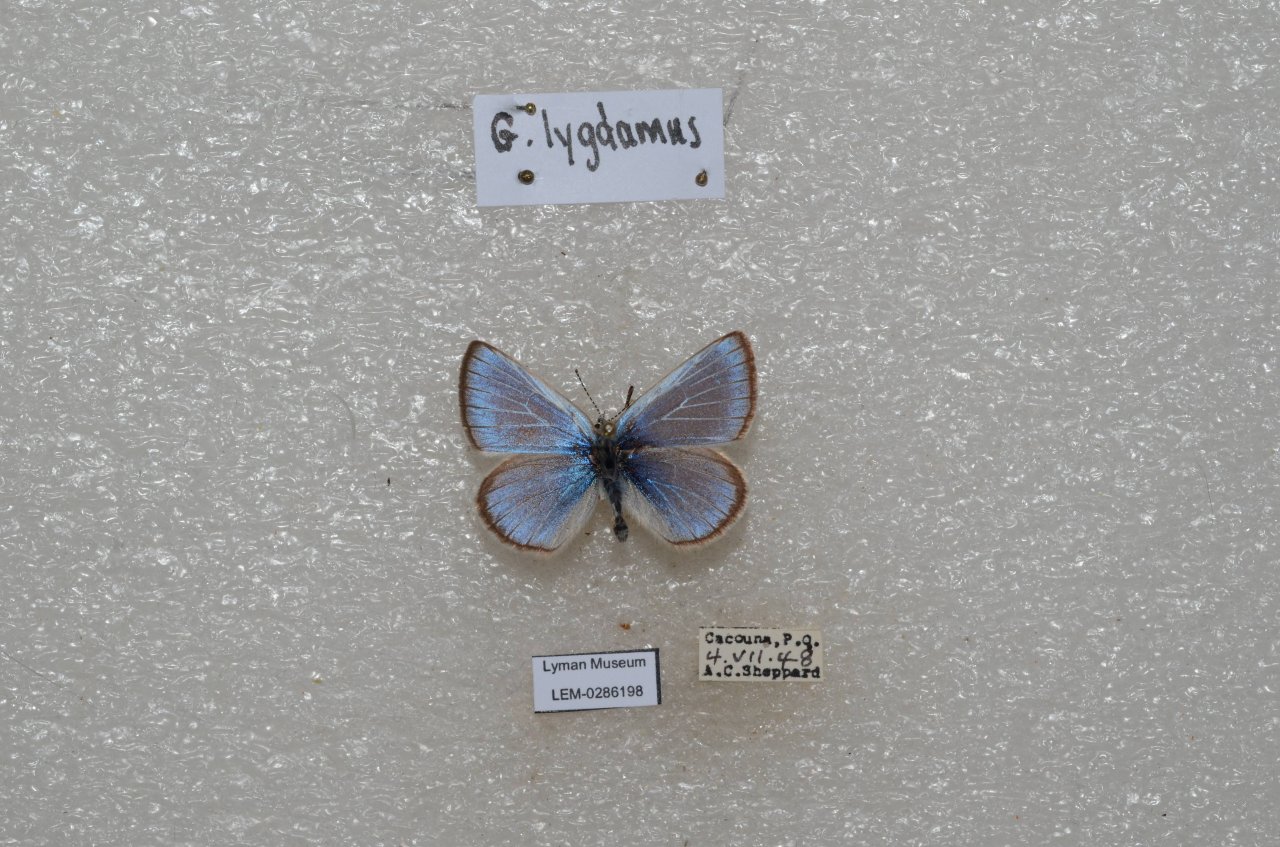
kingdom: Animalia
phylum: Arthropoda
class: Insecta
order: Lepidoptera
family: Lycaenidae
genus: Glaucopsyche
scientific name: Glaucopsyche lygdamus
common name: Silvery Blue
